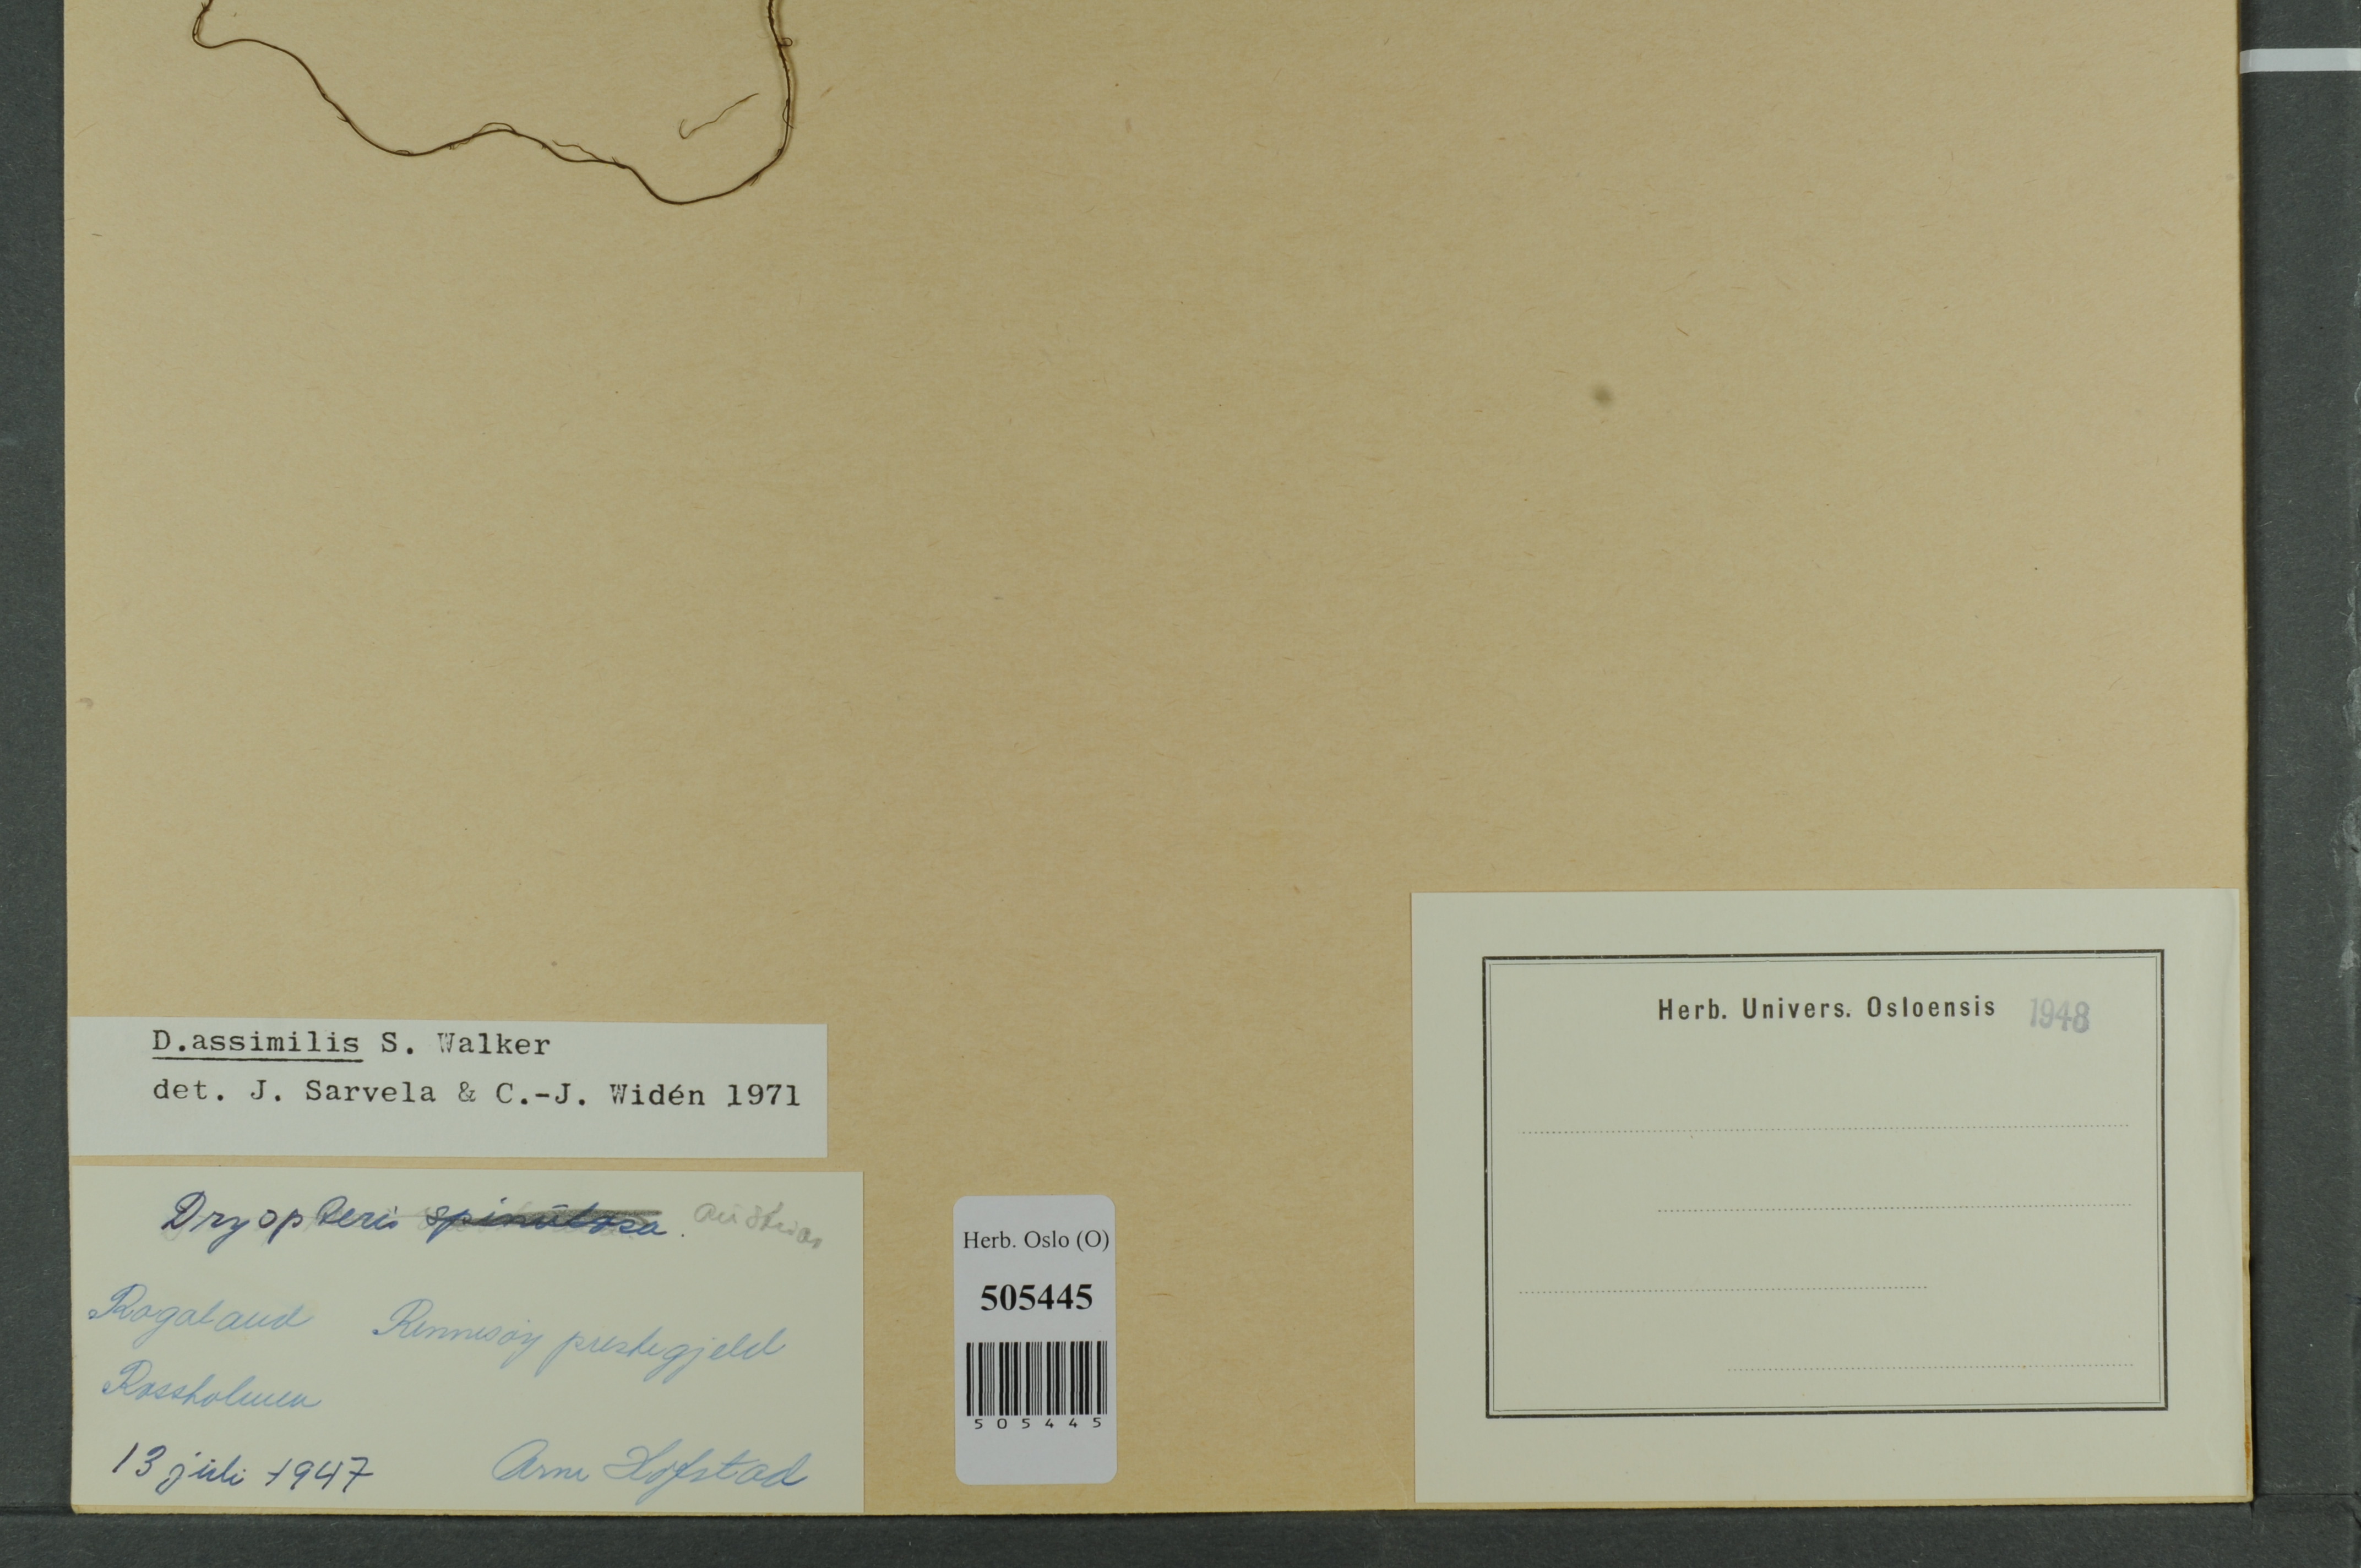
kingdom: Plantae
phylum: Tracheophyta
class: Polypodiopsida
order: Polypodiales
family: Dryopteridaceae
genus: Dryopteris
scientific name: Dryopteris expansa
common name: Northern buckler fern
